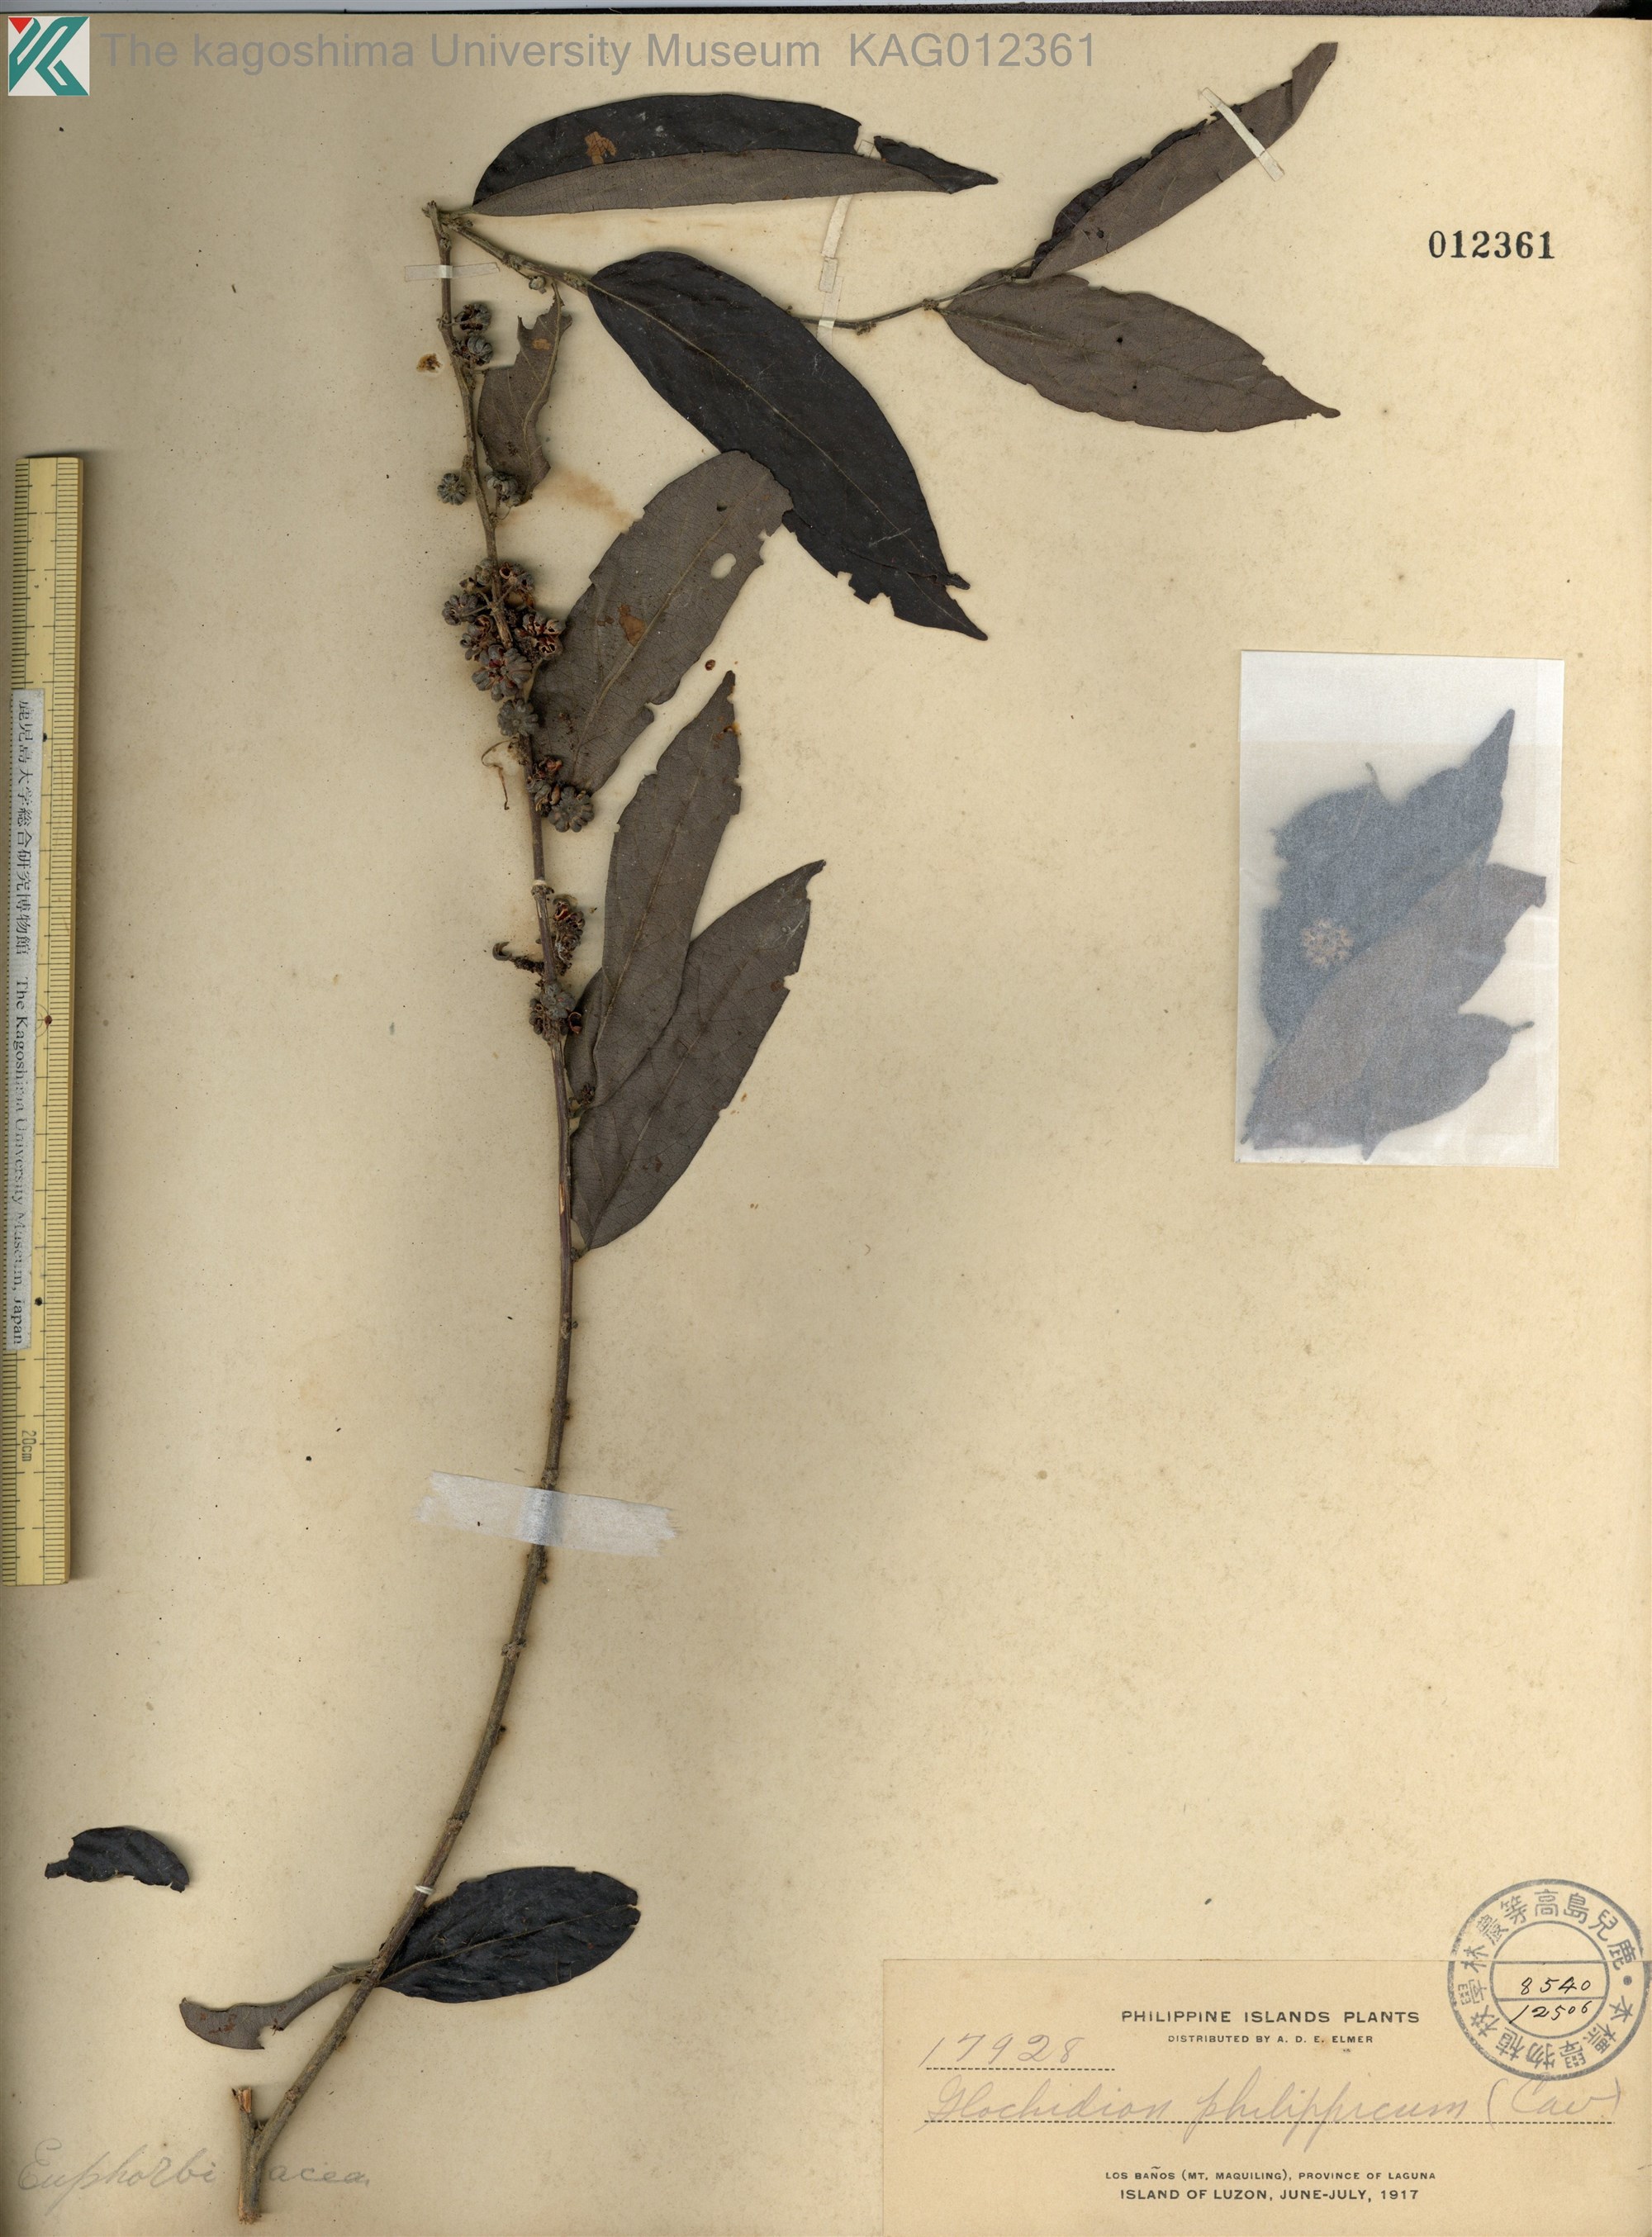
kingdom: Plantae
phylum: Tracheophyta
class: Magnoliopsida
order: Malpighiales
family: Phyllanthaceae
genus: Glochidion
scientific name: Glochidion philippicum
